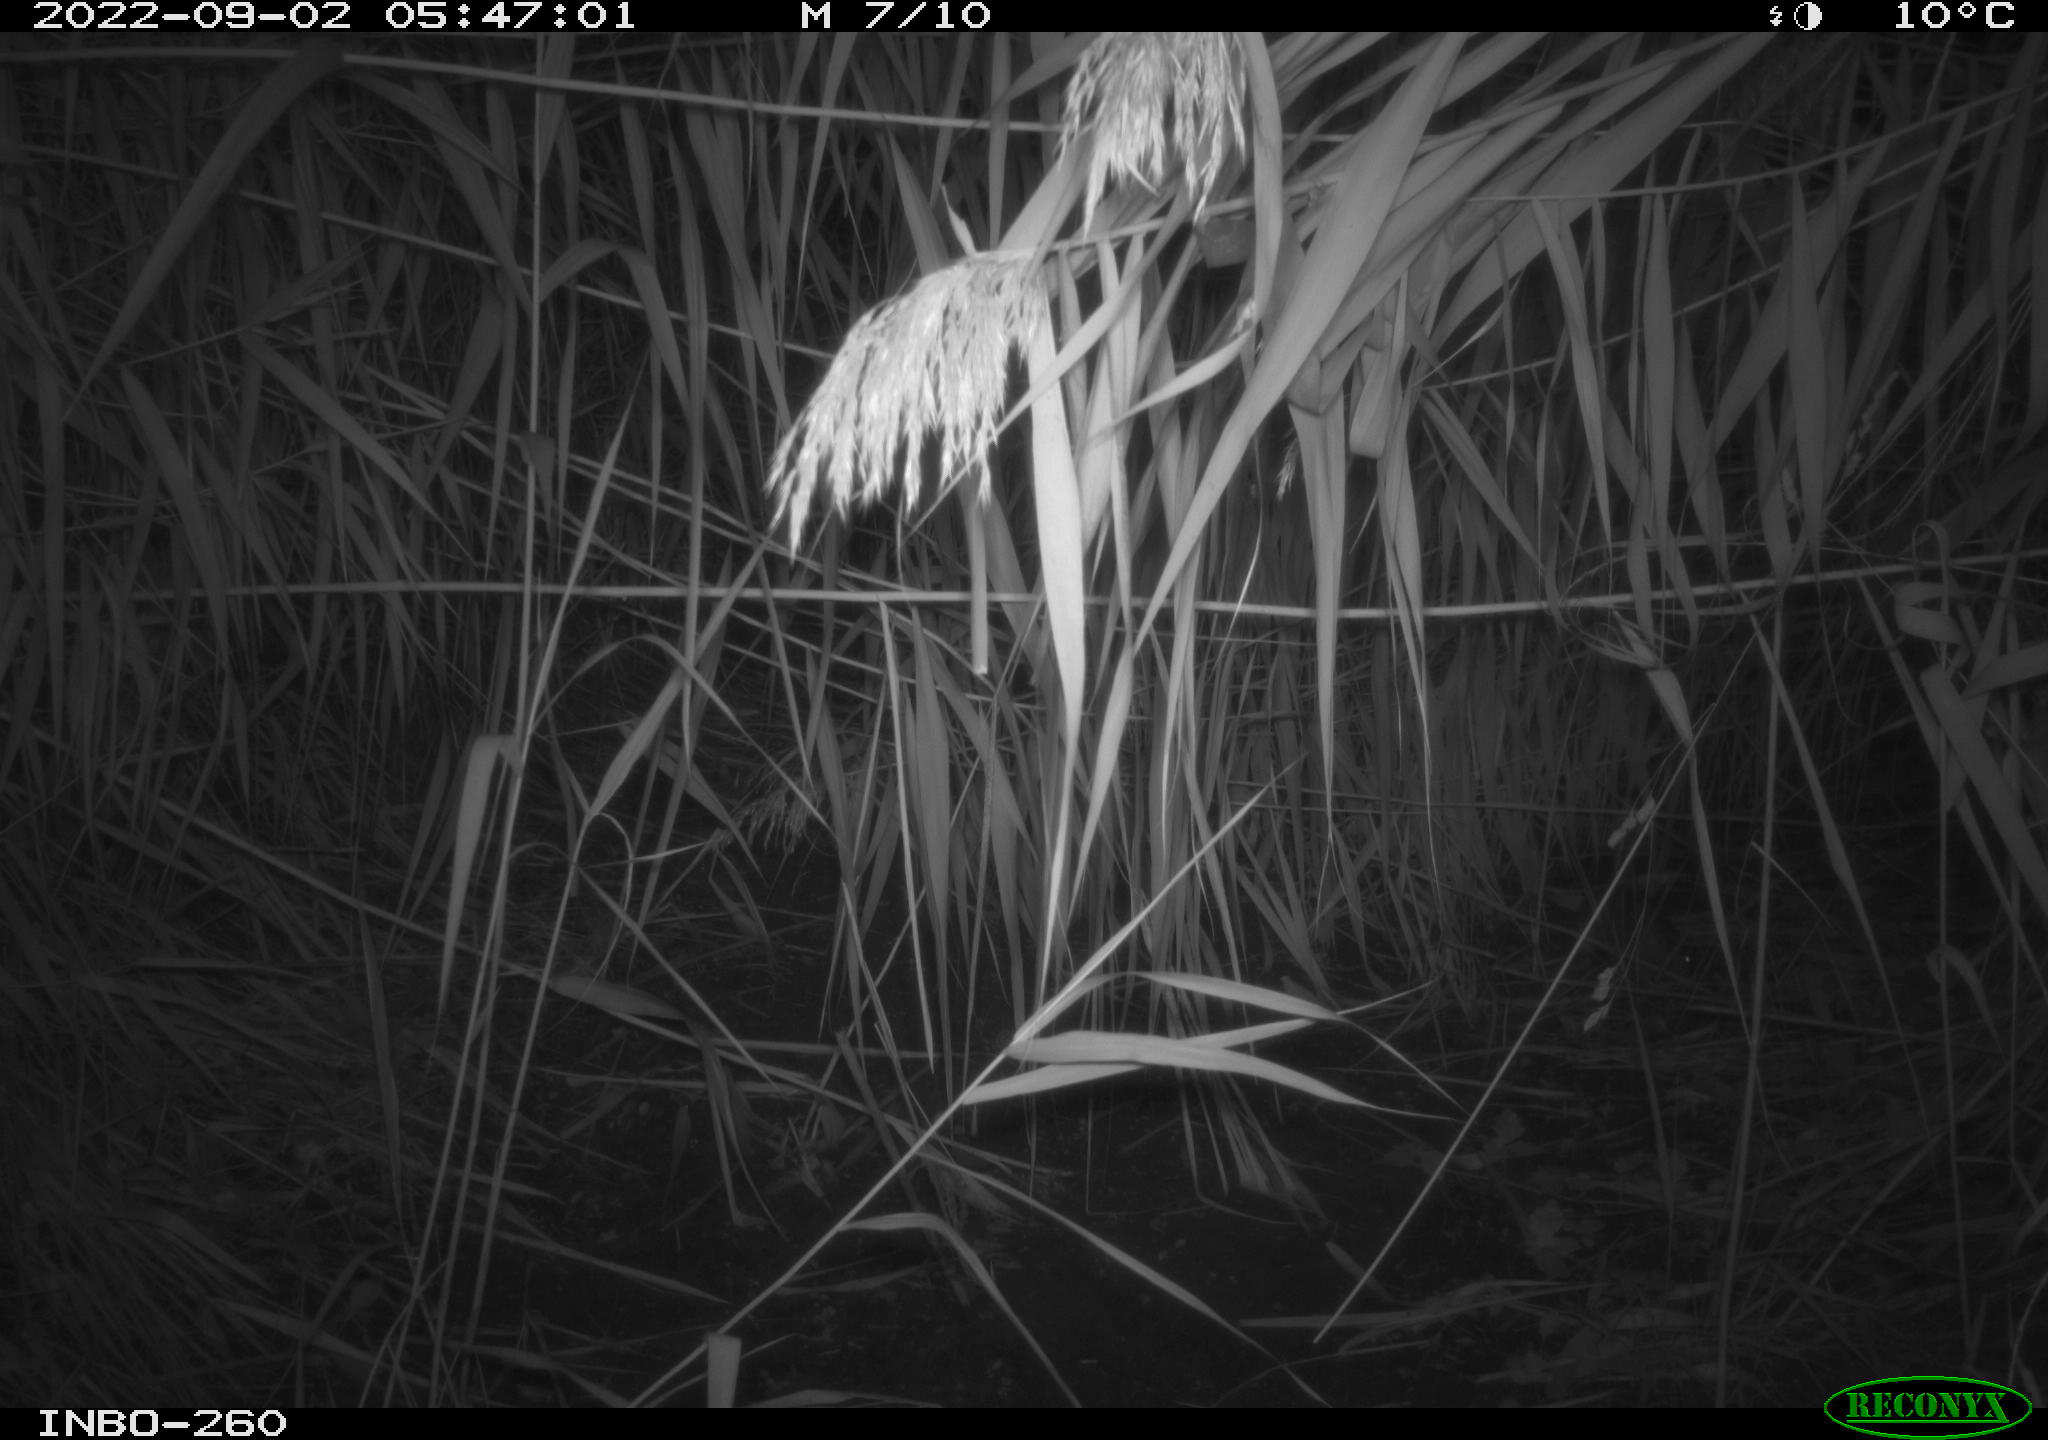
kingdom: Animalia
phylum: Chordata
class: Mammalia
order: Rodentia
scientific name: Rodentia
